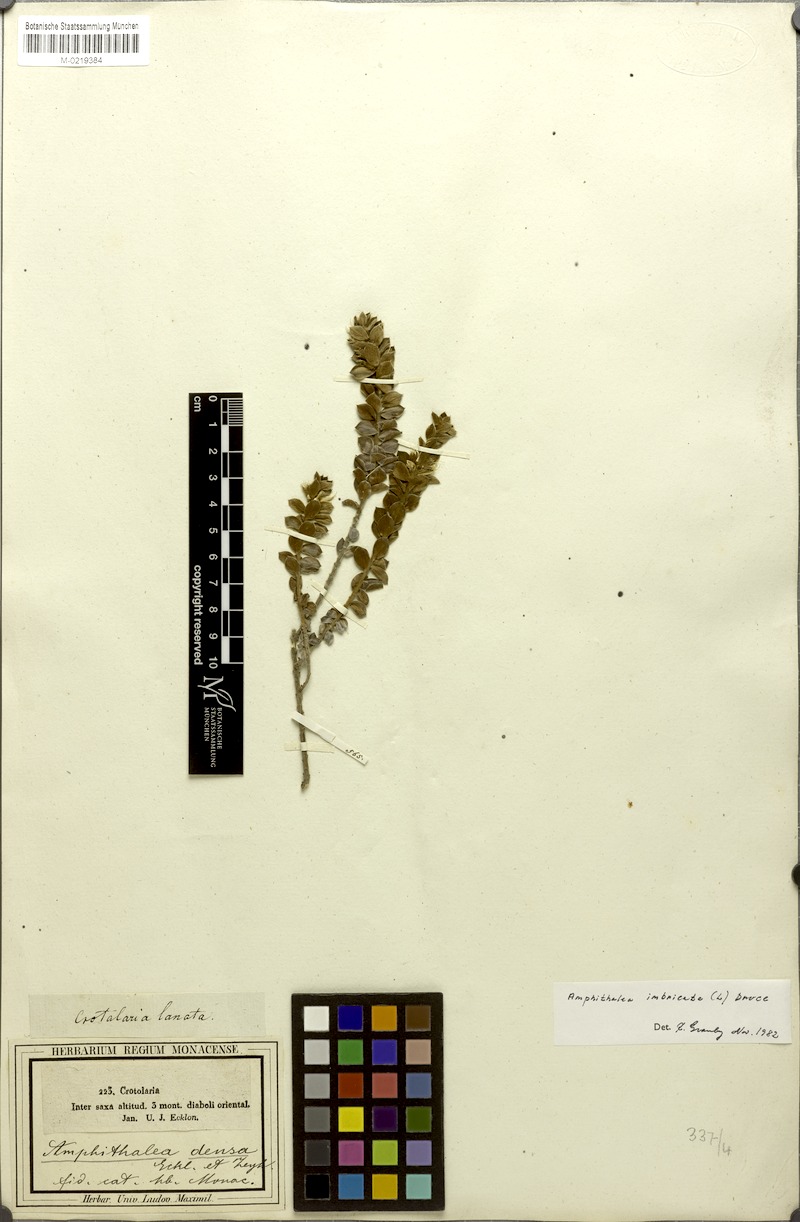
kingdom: Plantae
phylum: Tracheophyta
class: Magnoliopsida
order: Fabales
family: Fabaceae
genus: Amphithalea
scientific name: Amphithalea imbricata
